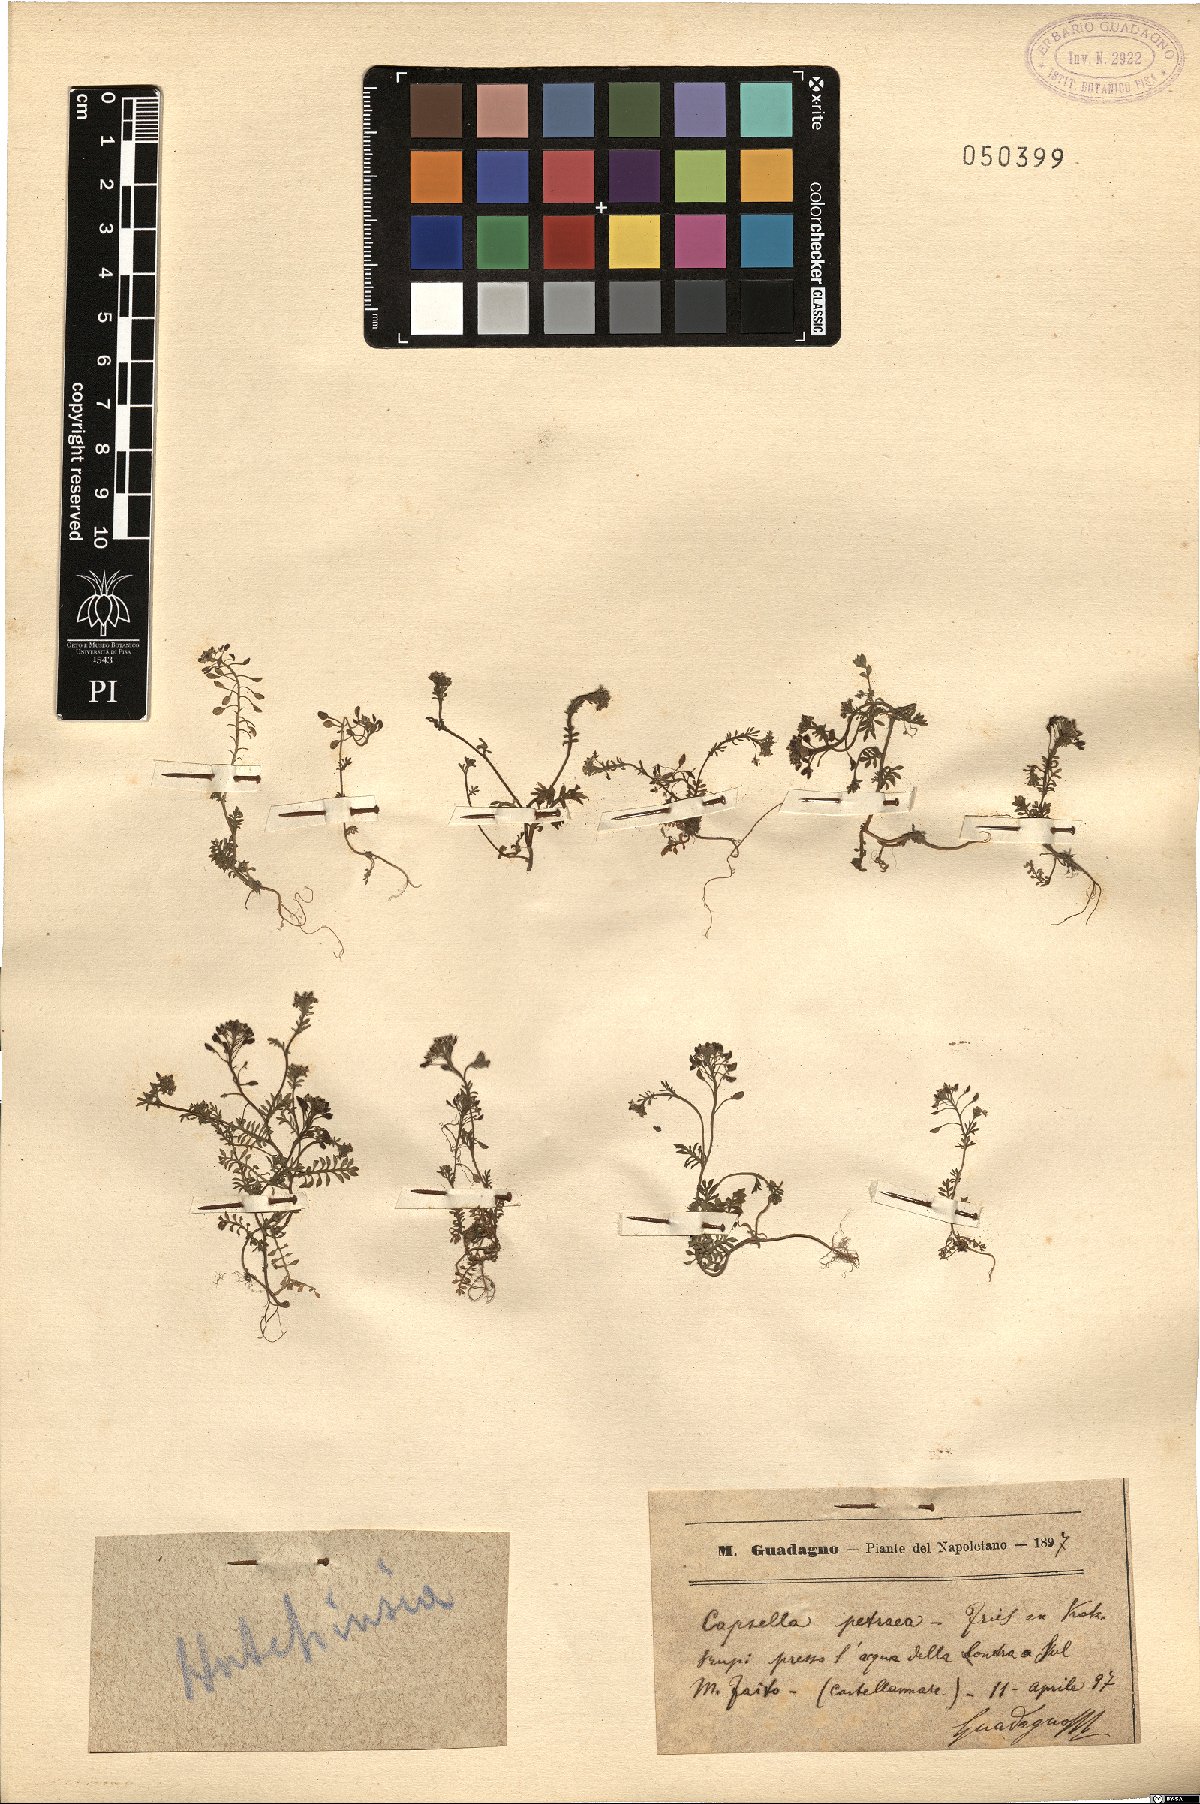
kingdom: Plantae
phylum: Tracheophyta
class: Magnoliopsida
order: Brassicales
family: Brassicaceae
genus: Hornungia
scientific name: Hornungia petraea
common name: Hutchinsia
